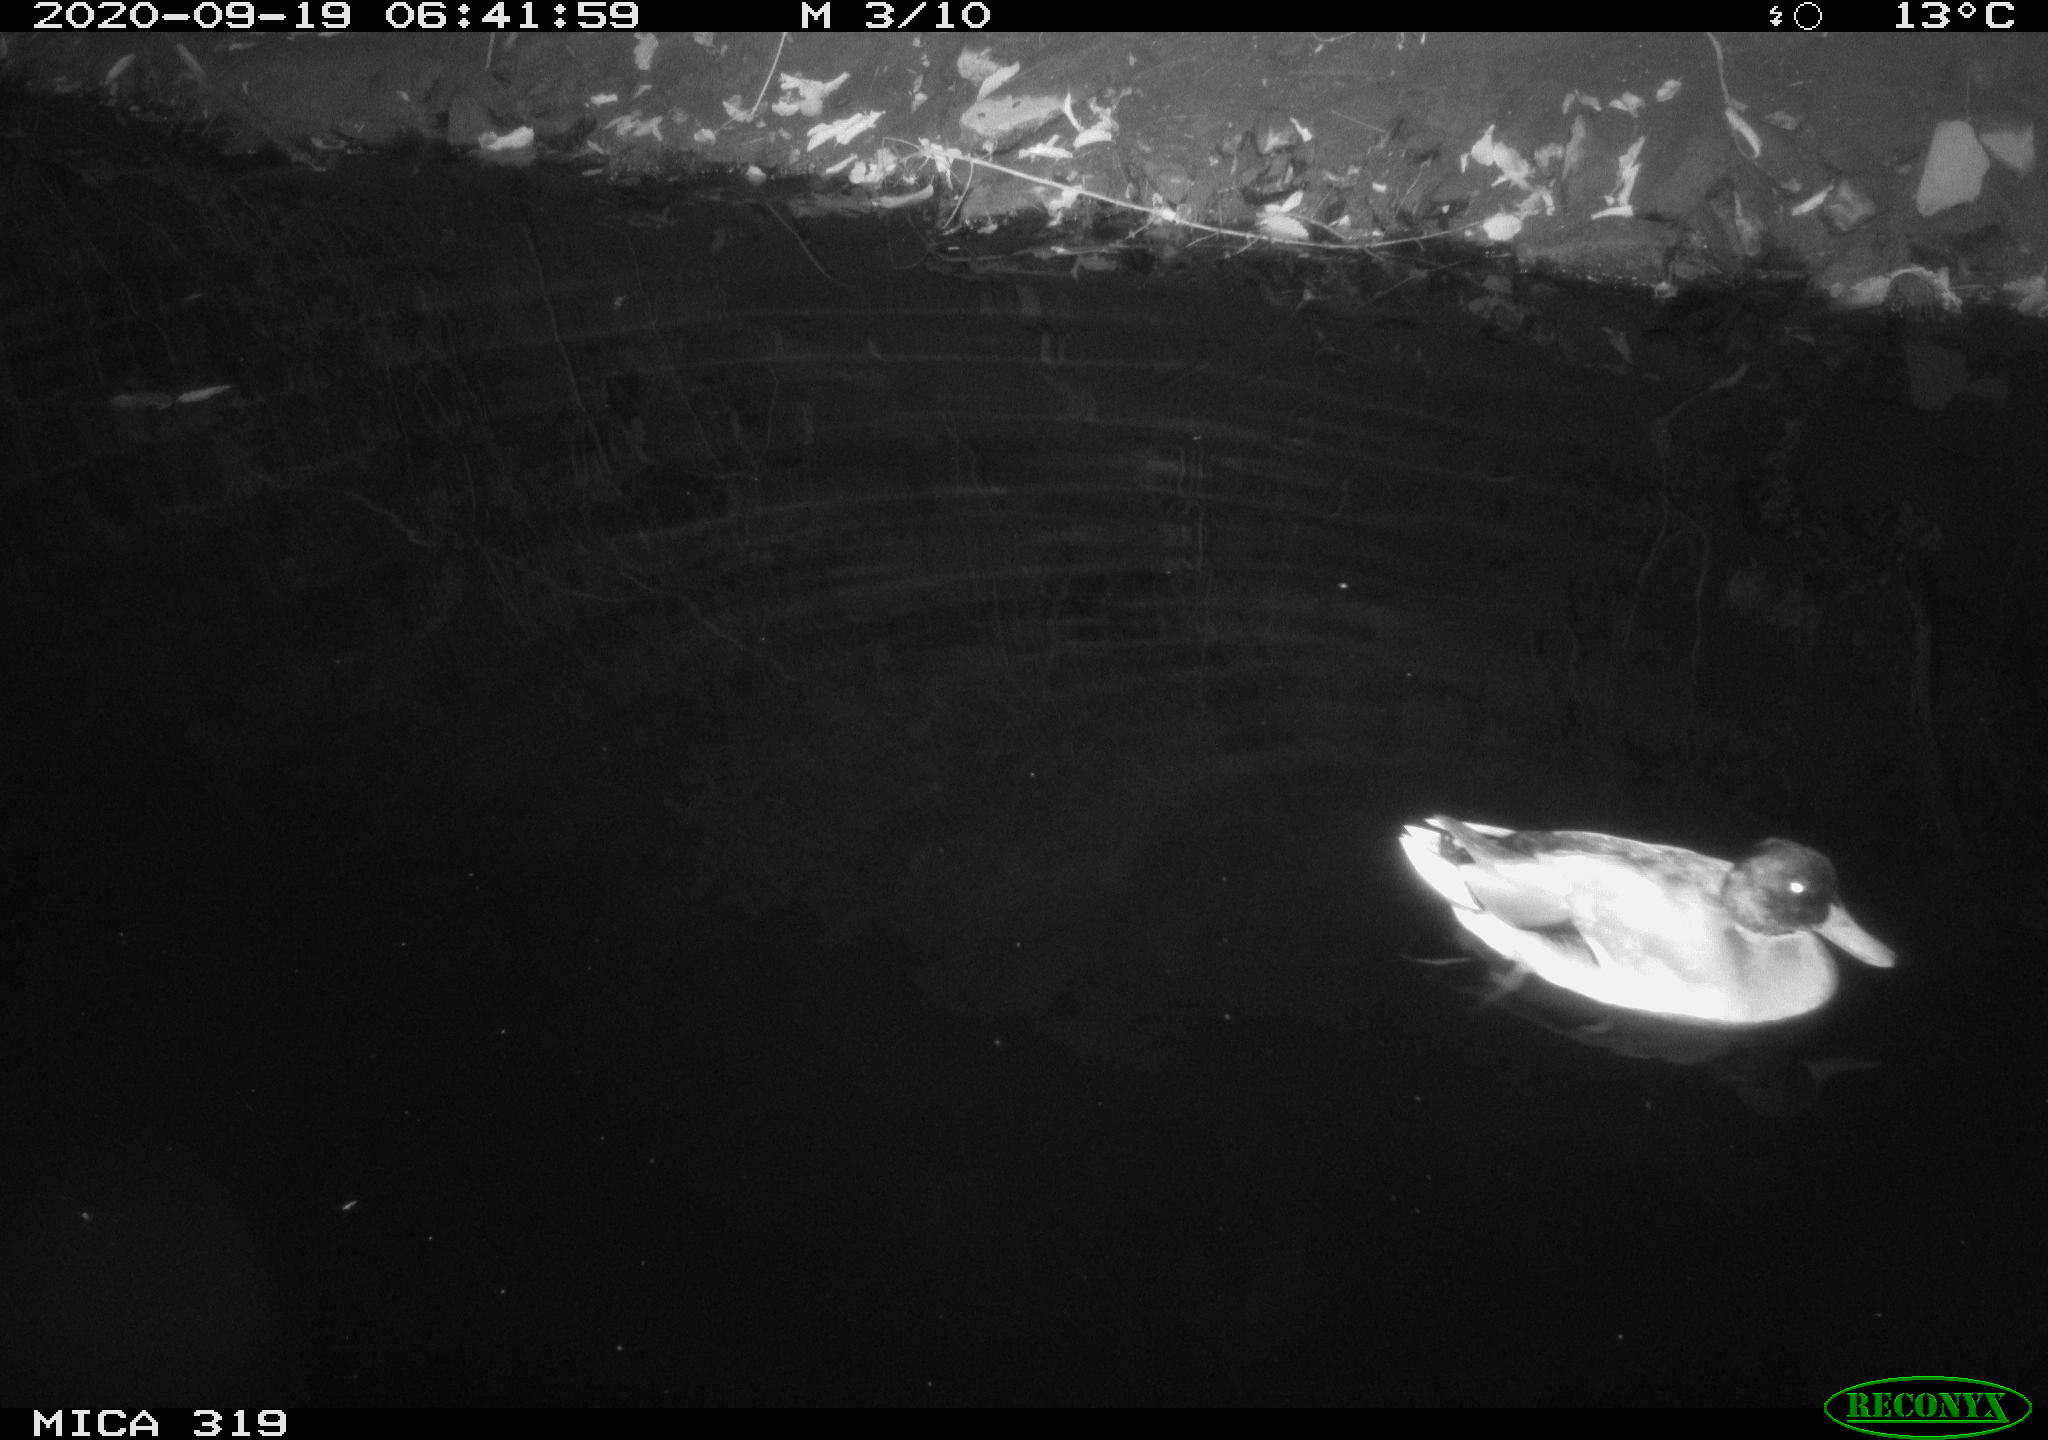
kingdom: Animalia
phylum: Chordata
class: Aves
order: Anseriformes
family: Anatidae
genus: Anas
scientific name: Anas platyrhynchos
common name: Mallard
